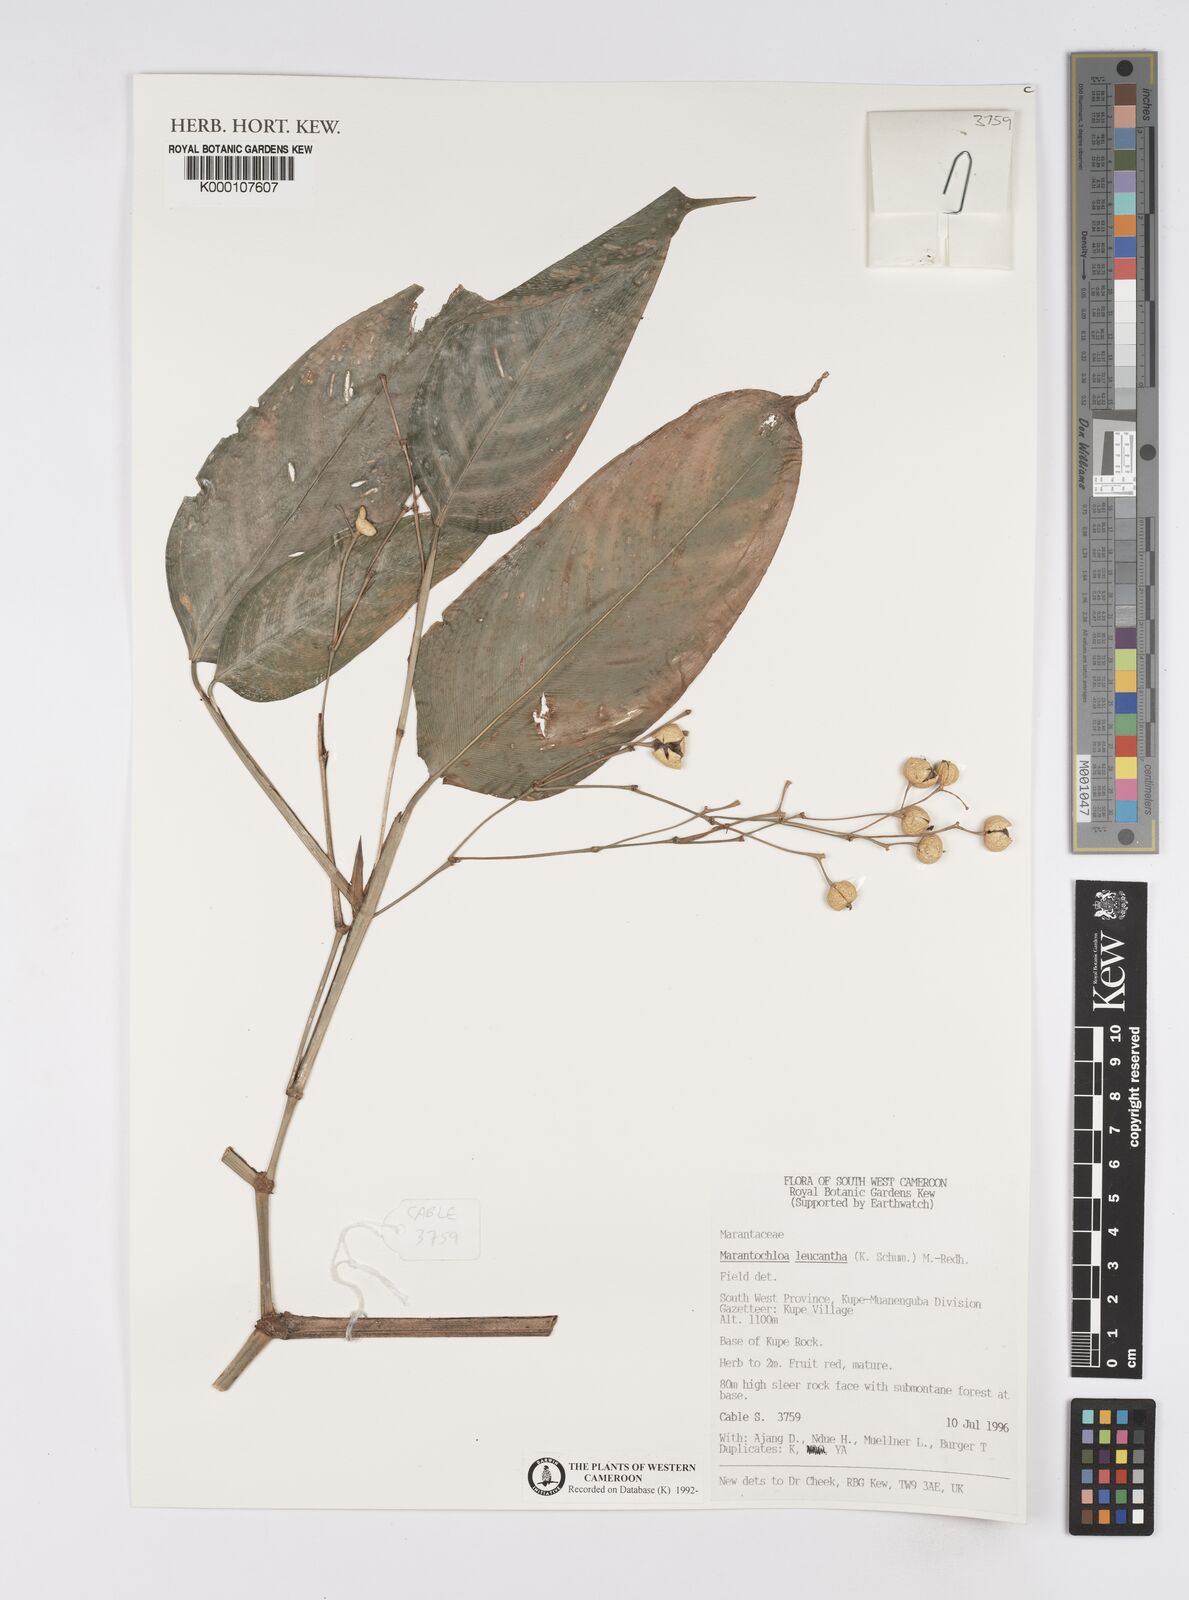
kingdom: Plantae
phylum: Tracheophyta
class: Liliopsida
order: Zingiberales
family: Marantaceae
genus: Marantochloa
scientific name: Marantochloa leucantha
